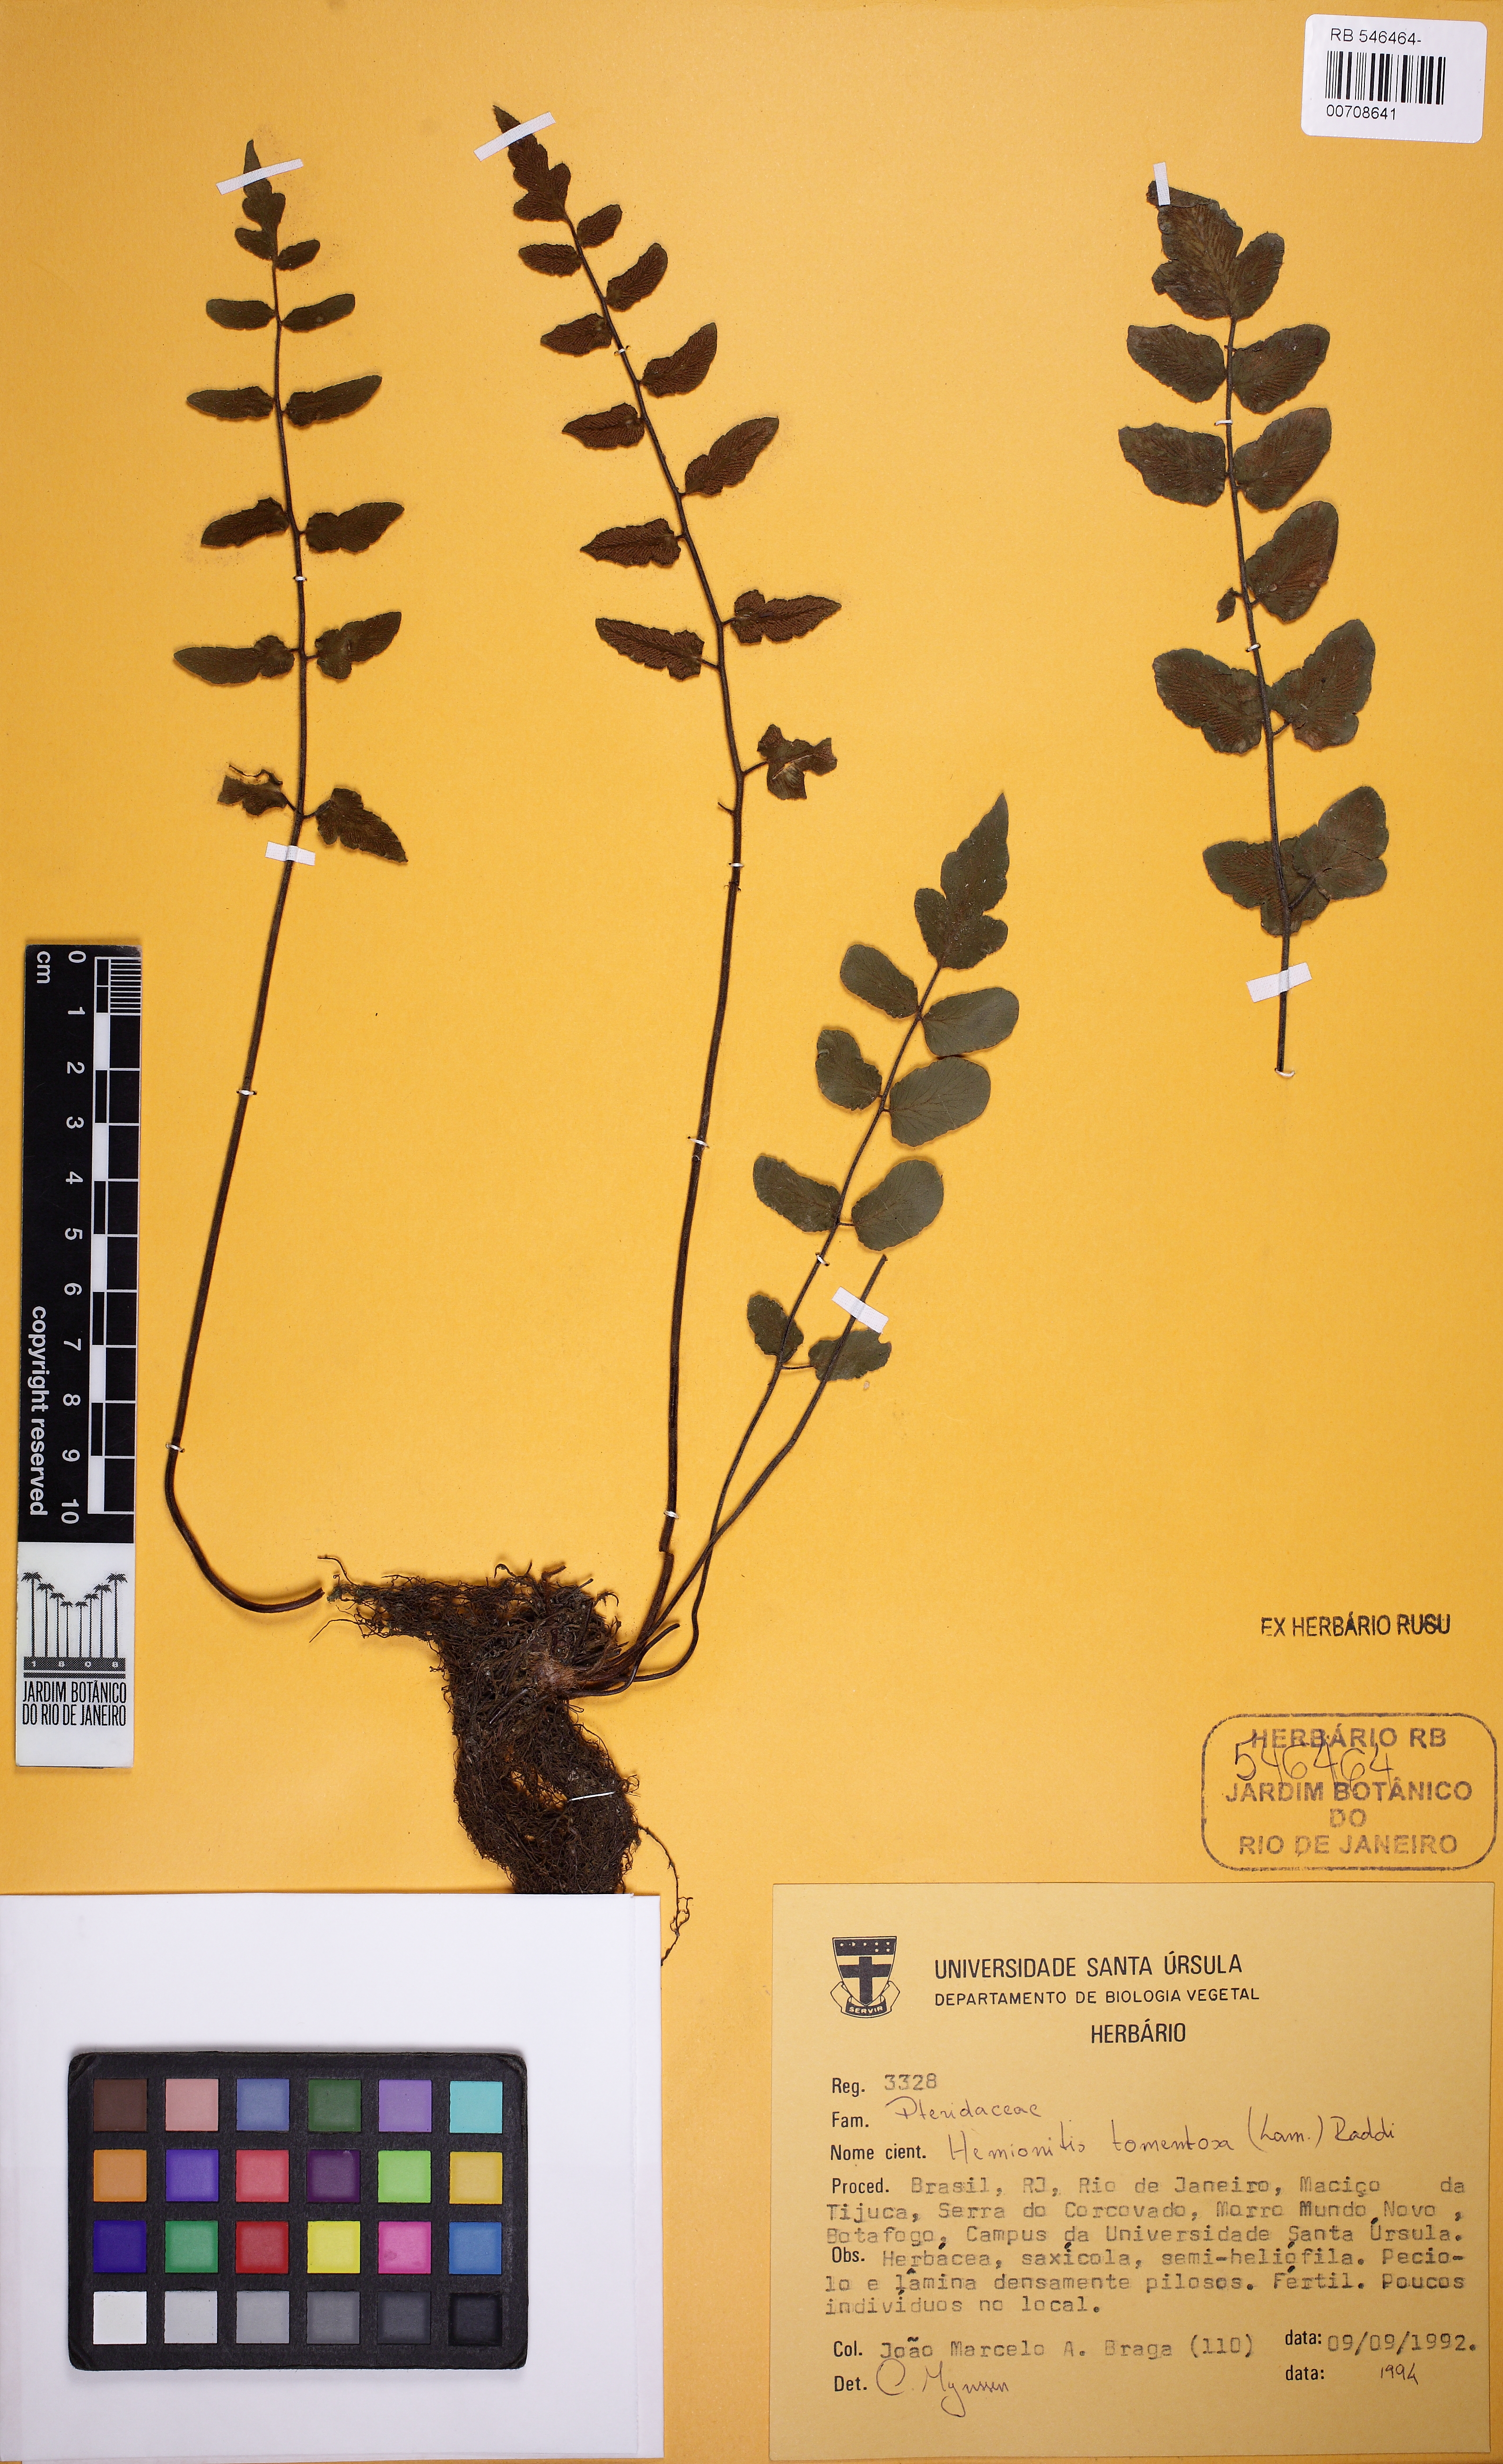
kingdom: Plantae
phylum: Tracheophyta
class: Polypodiopsida
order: Polypodiales
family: Pteridaceae
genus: Hemionitis
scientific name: Hemionitis tomentosa
